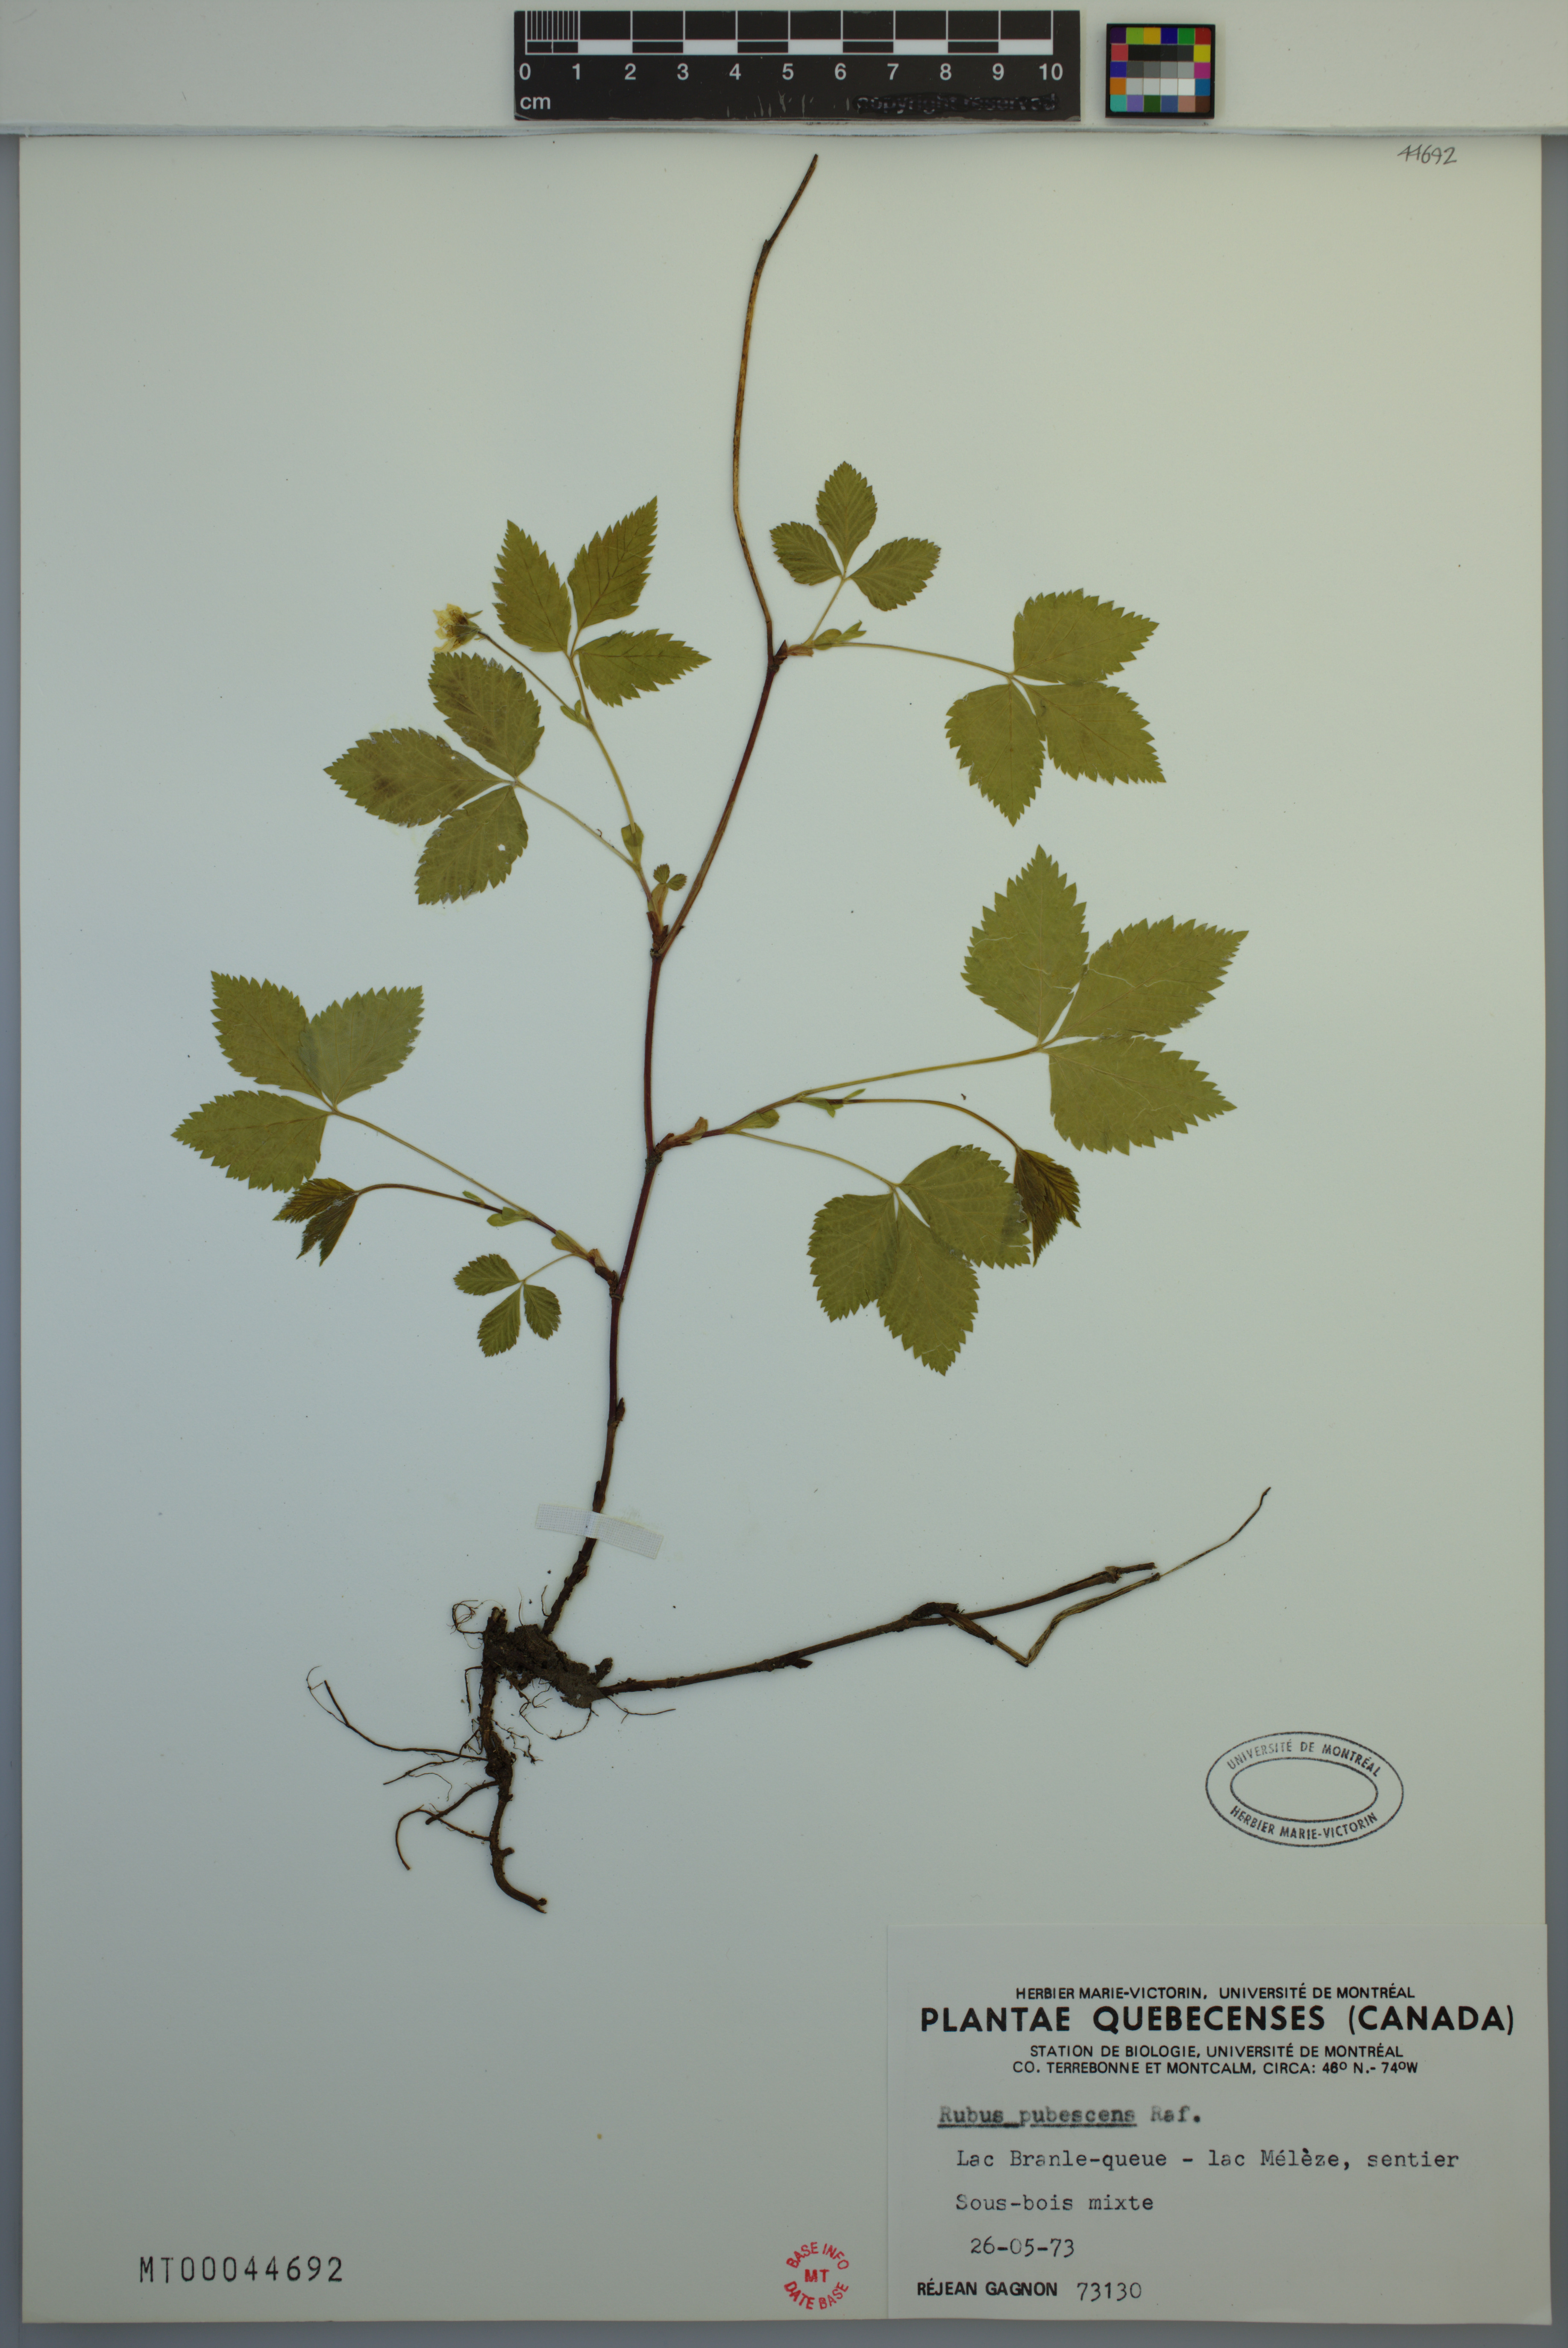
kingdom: Plantae
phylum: Tracheophyta
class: Magnoliopsida
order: Rosales
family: Rosaceae
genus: Rubus
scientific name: Rubus pubescens
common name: Dwarf raspberry
